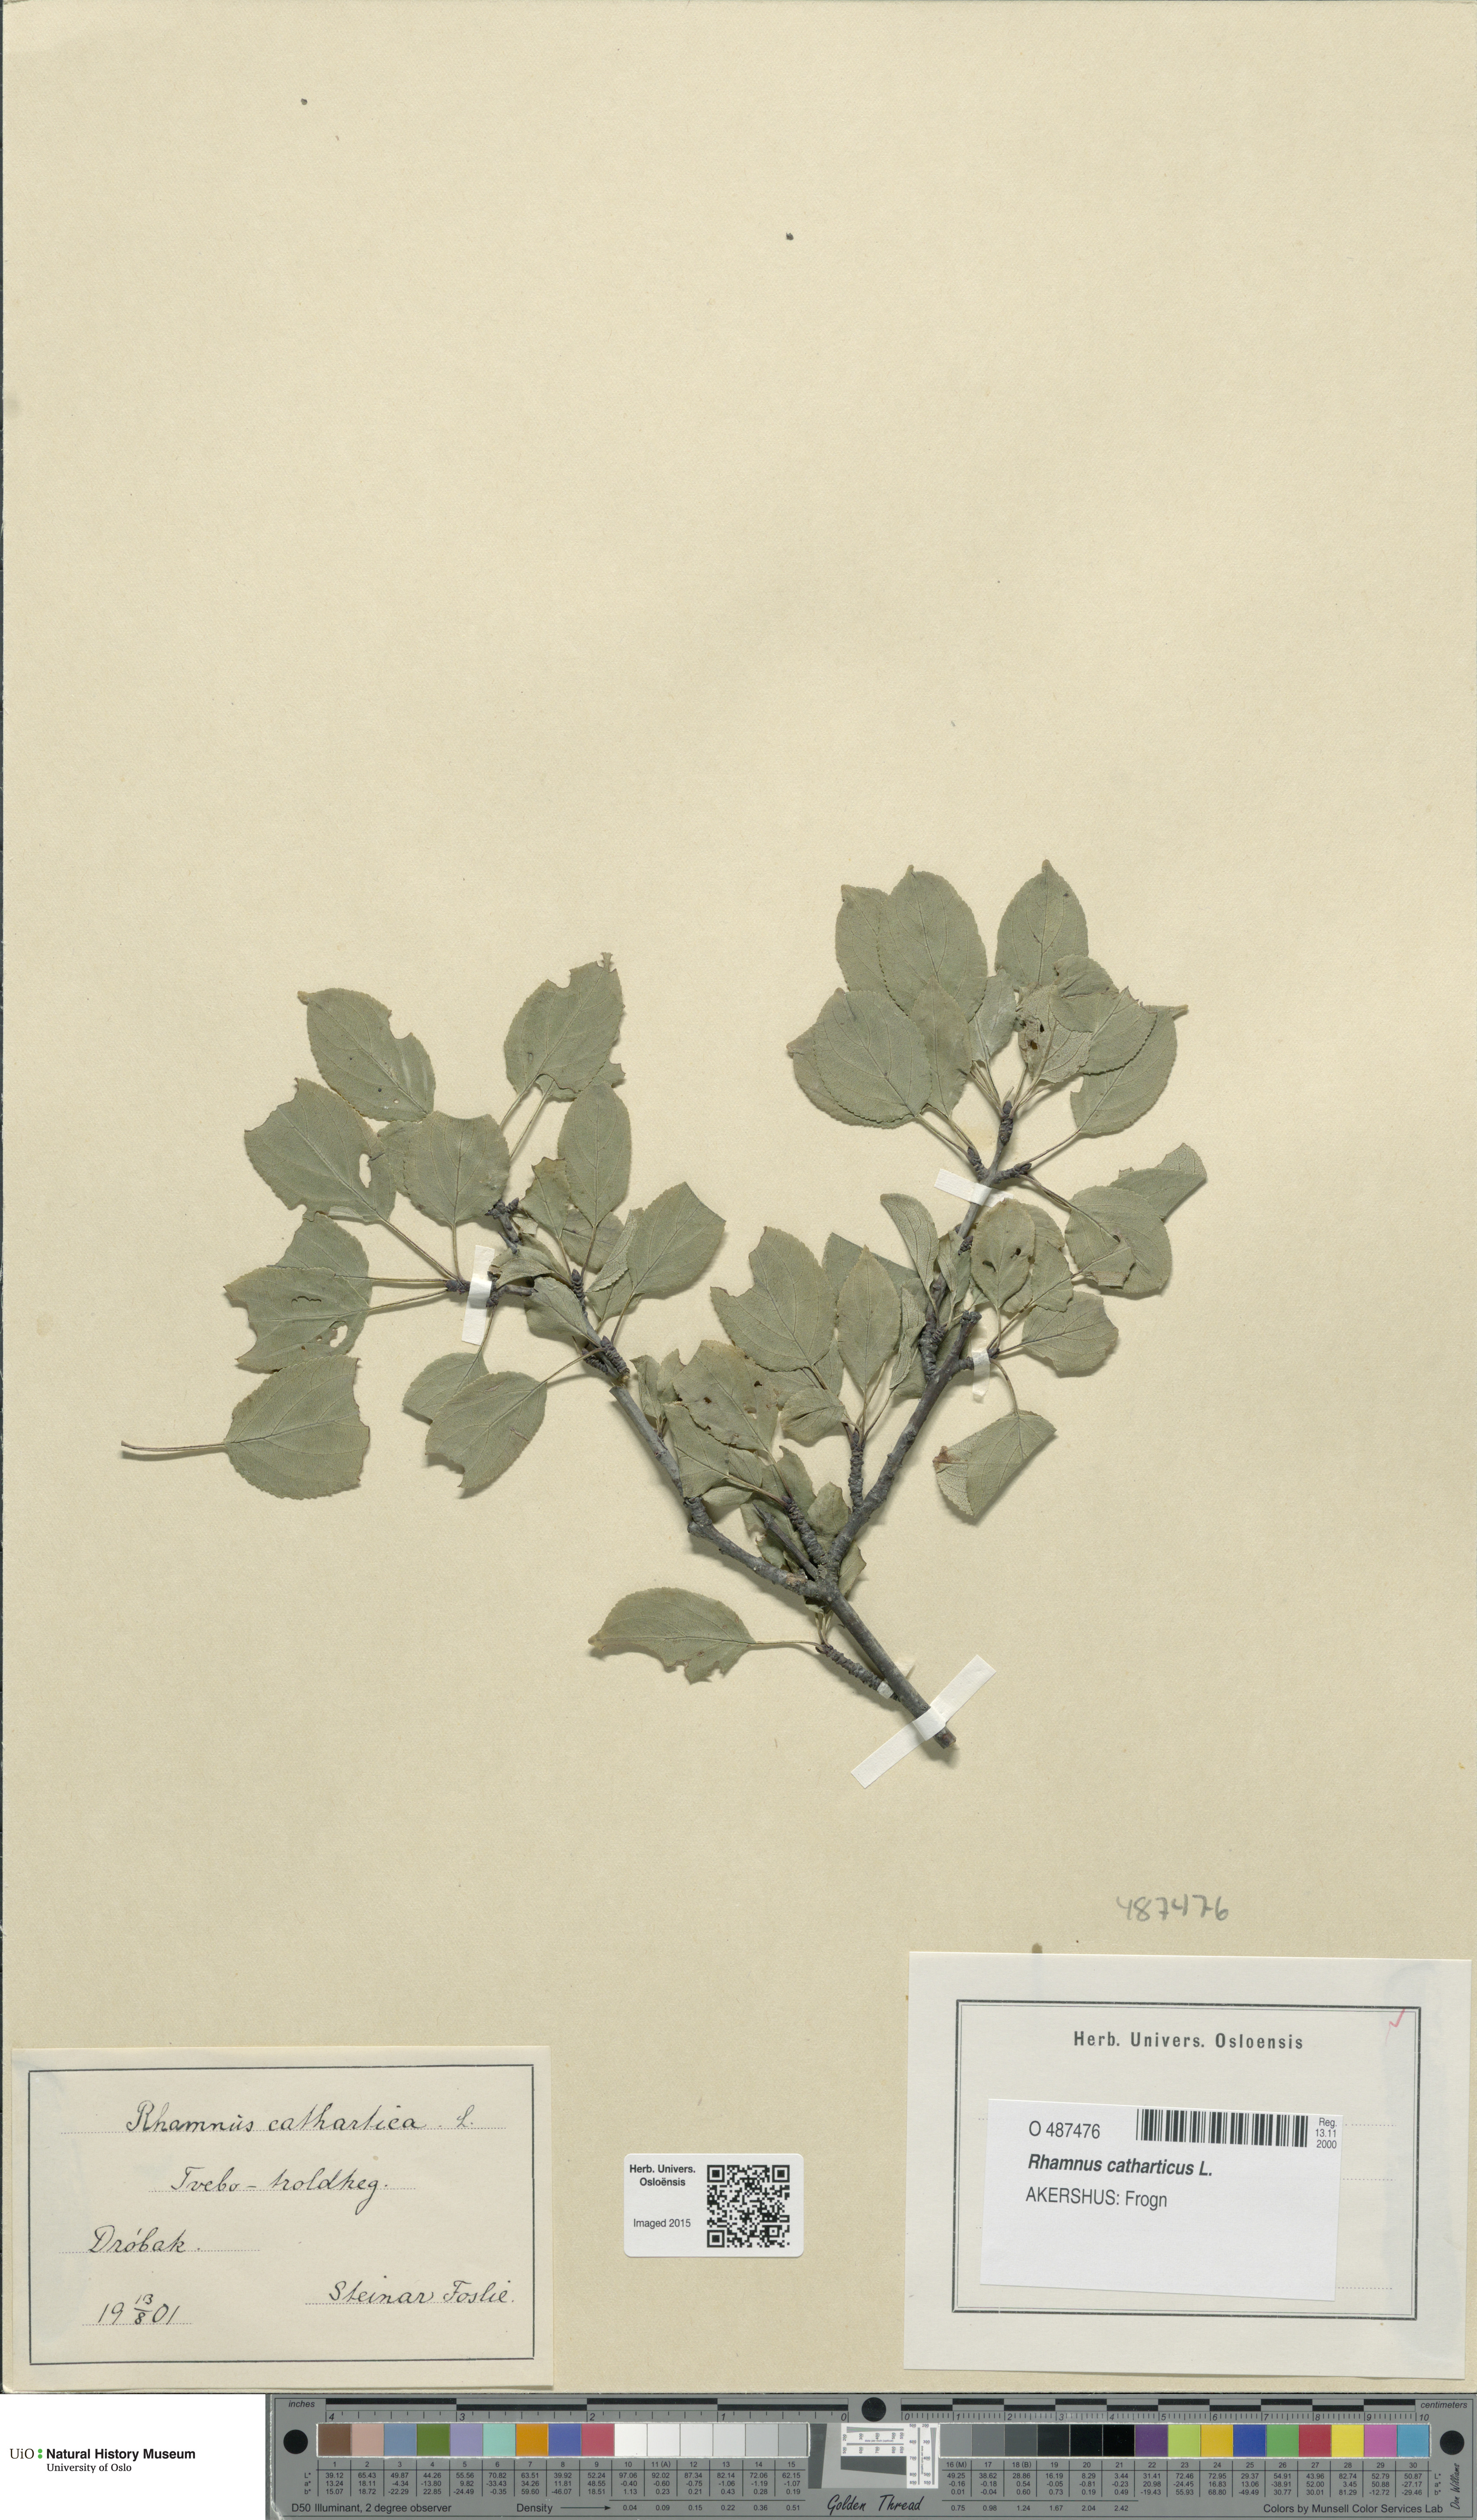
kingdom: Plantae
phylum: Tracheophyta
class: Magnoliopsida
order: Rosales
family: Rhamnaceae
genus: Rhamnus
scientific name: Rhamnus cathartica
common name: Common buckthorn
